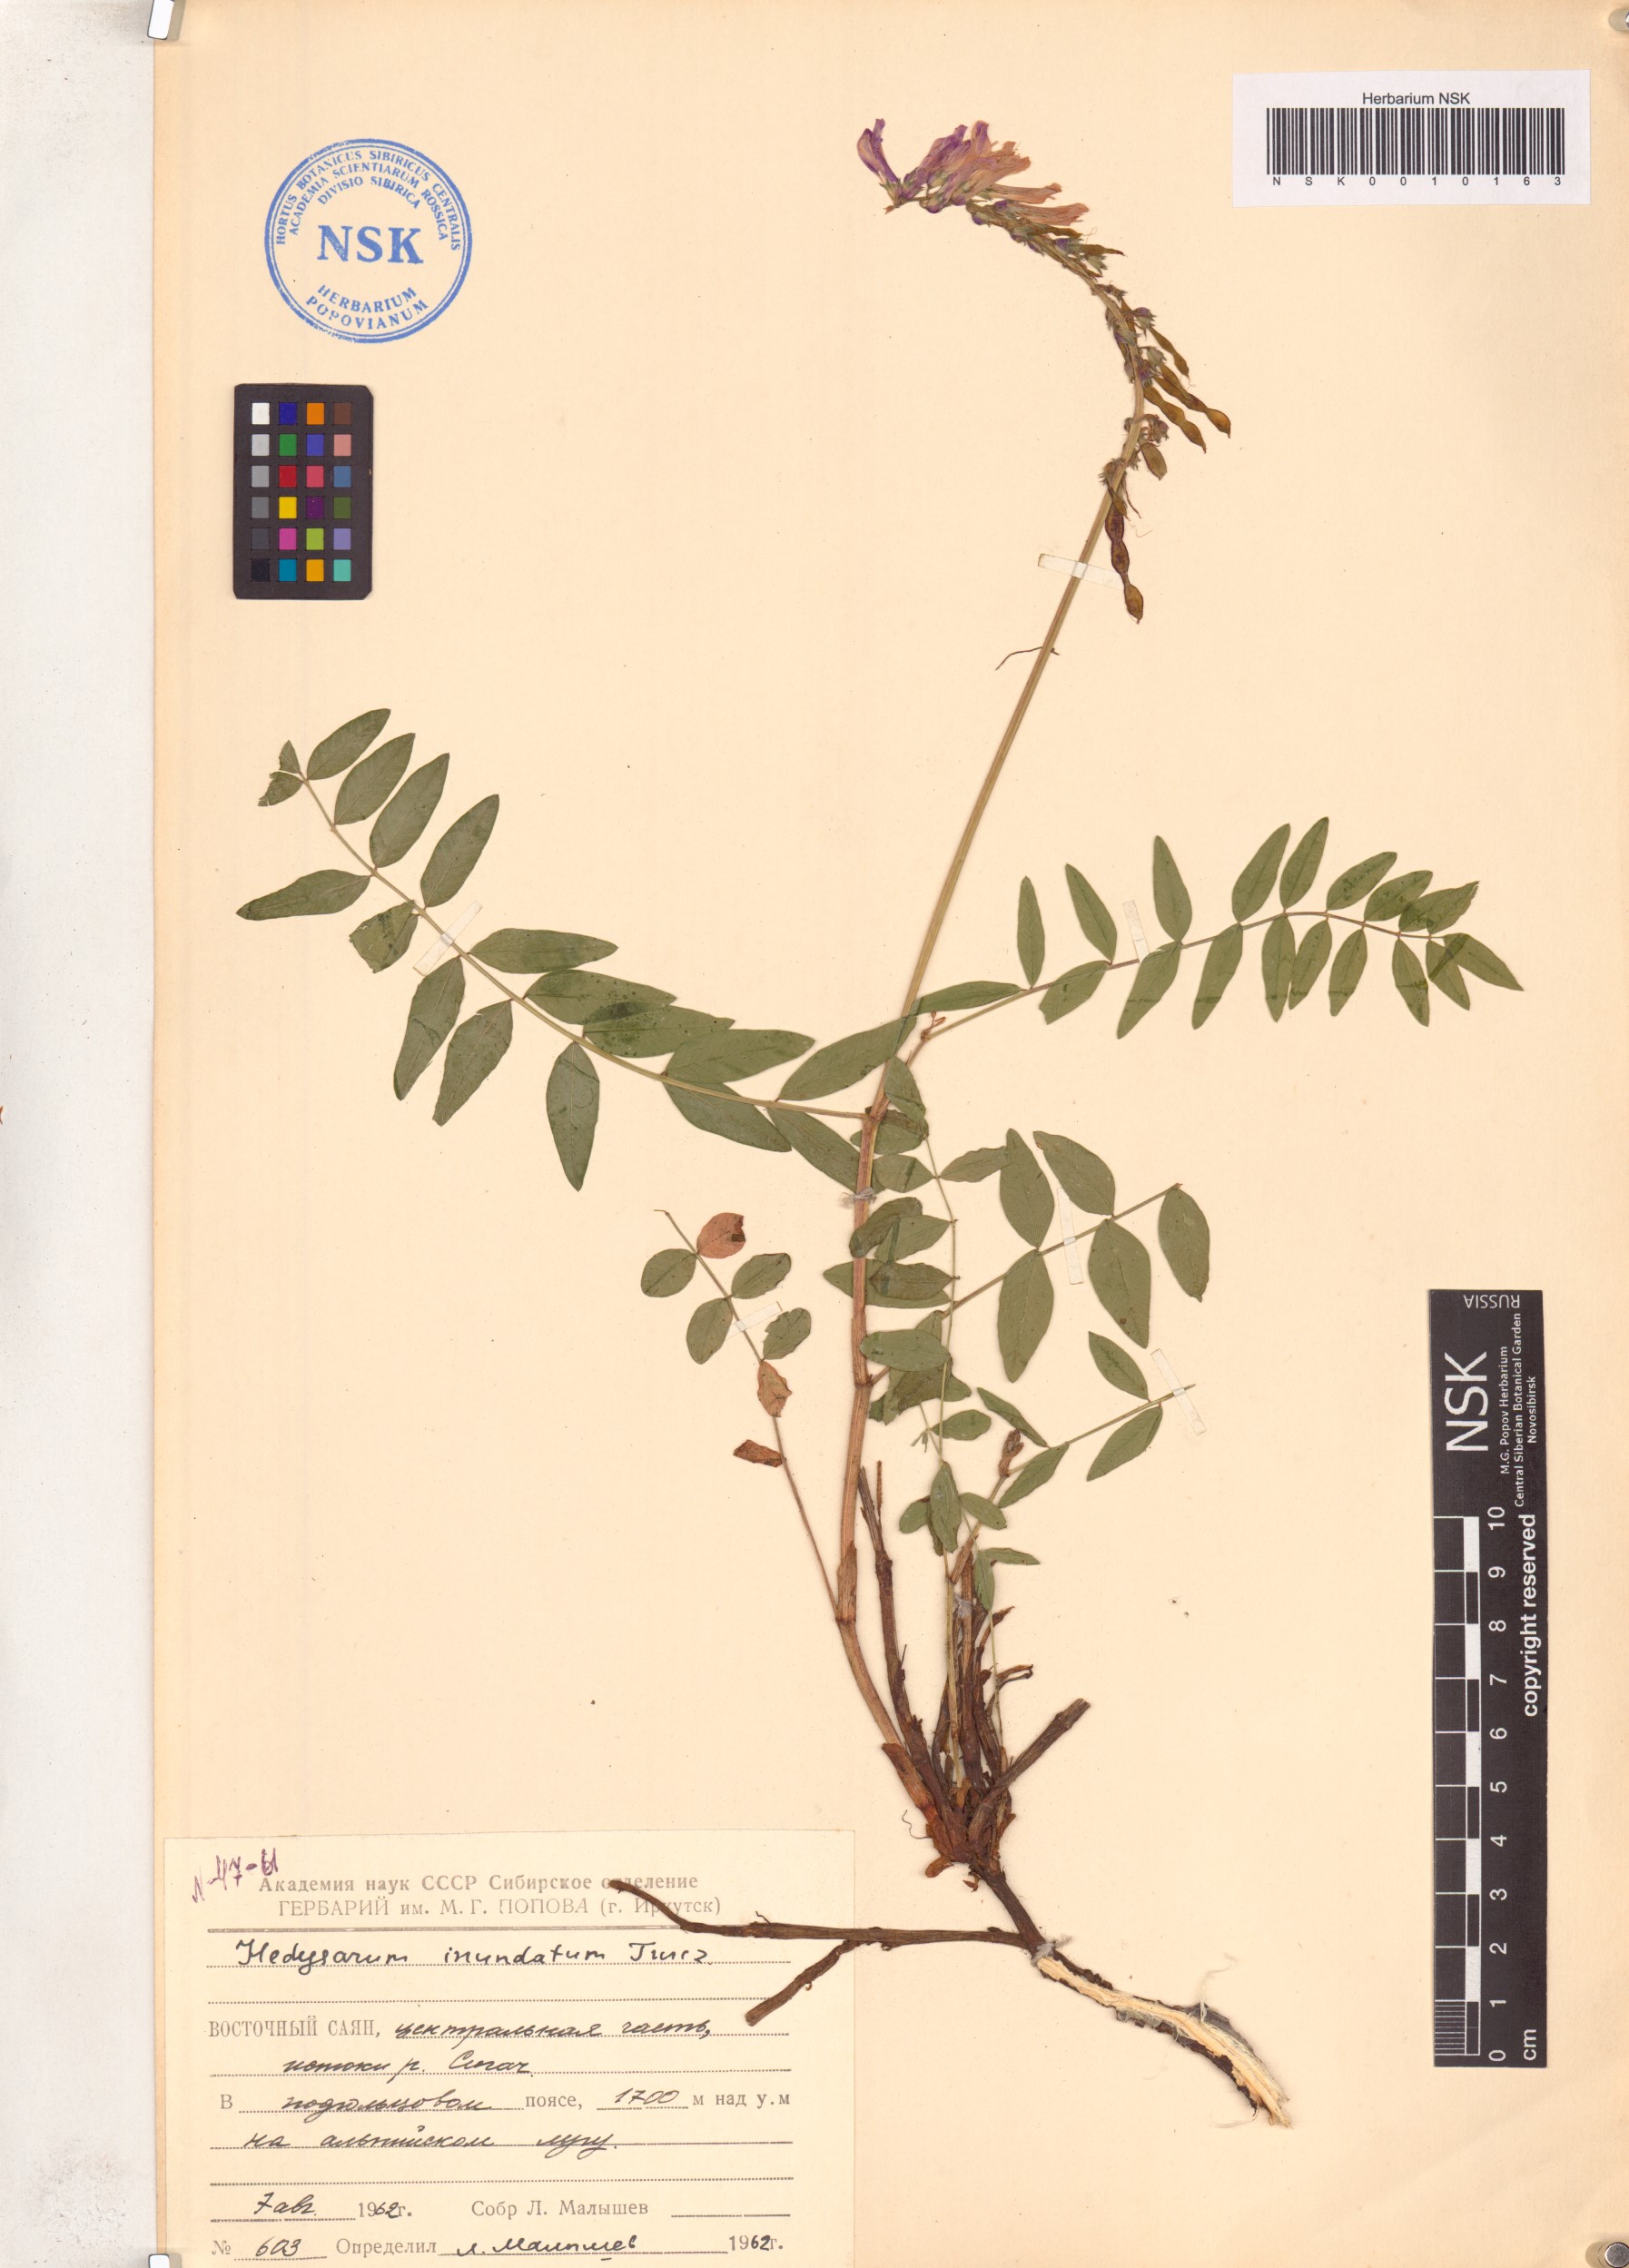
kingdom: Plantae
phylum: Tracheophyta
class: Magnoliopsida
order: Fabales
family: Fabaceae
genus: Hedysarum
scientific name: Hedysarum inundatum
